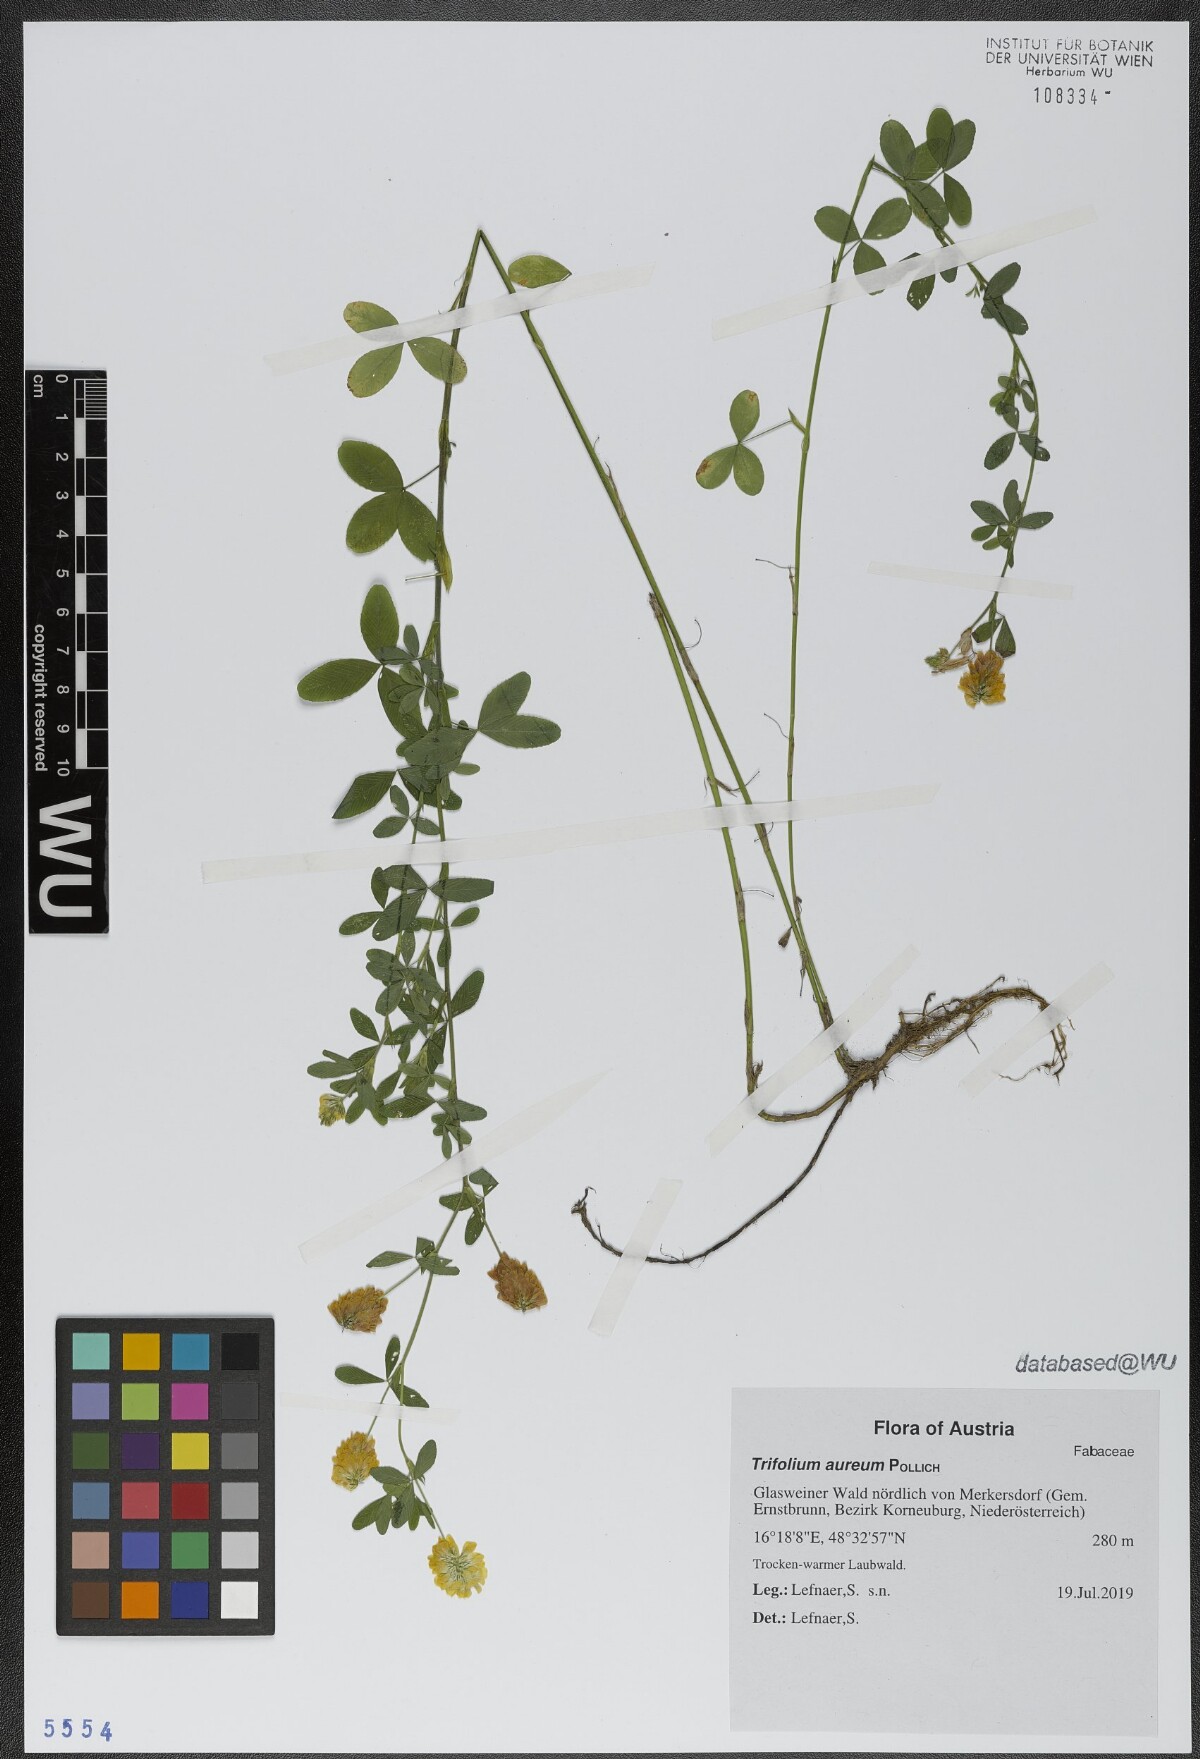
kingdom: Plantae
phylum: Tracheophyta
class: Magnoliopsida
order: Fabales
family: Fabaceae
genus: Trifolium
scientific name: Trifolium aureum
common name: Golden clover
